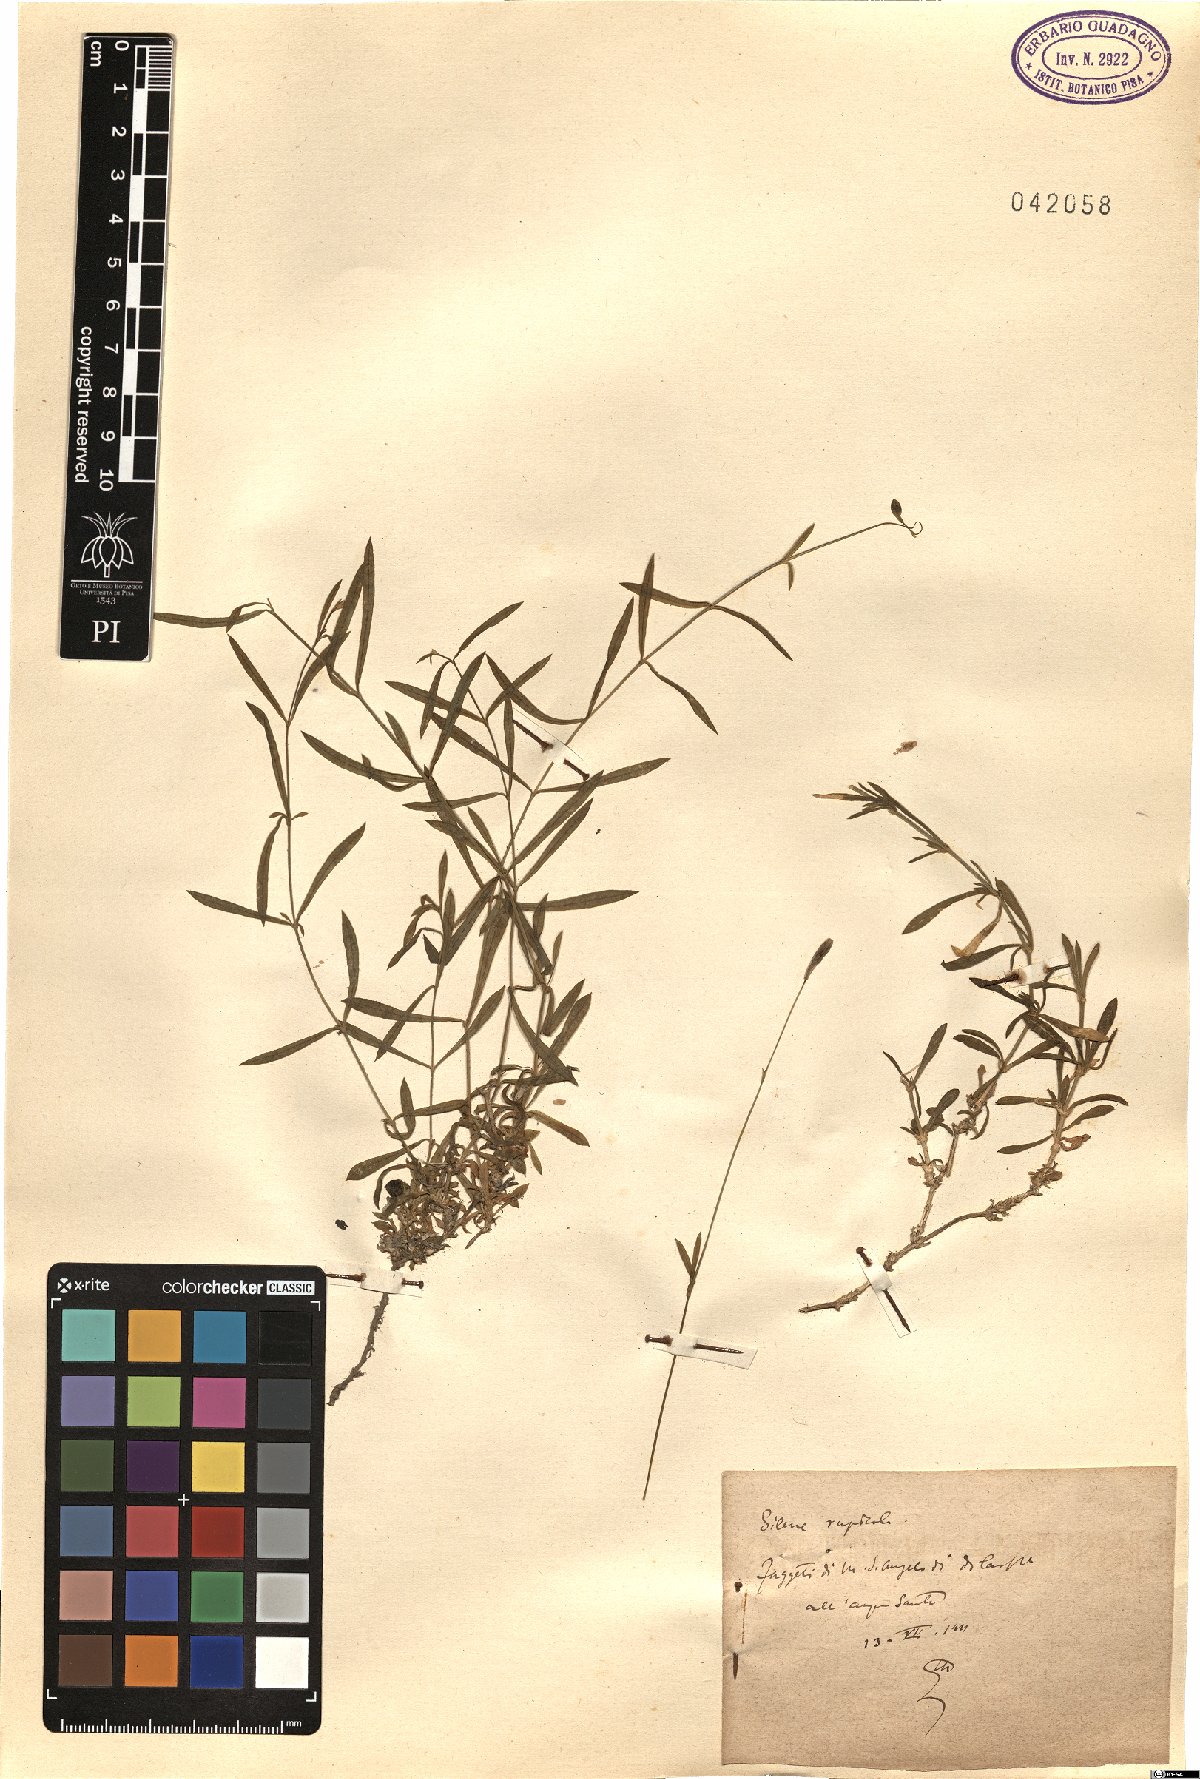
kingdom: Plantae
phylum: Tracheophyta
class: Magnoliopsida
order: Caryophyllales
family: Caryophyllaceae
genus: Silene
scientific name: Silene saxifraga
